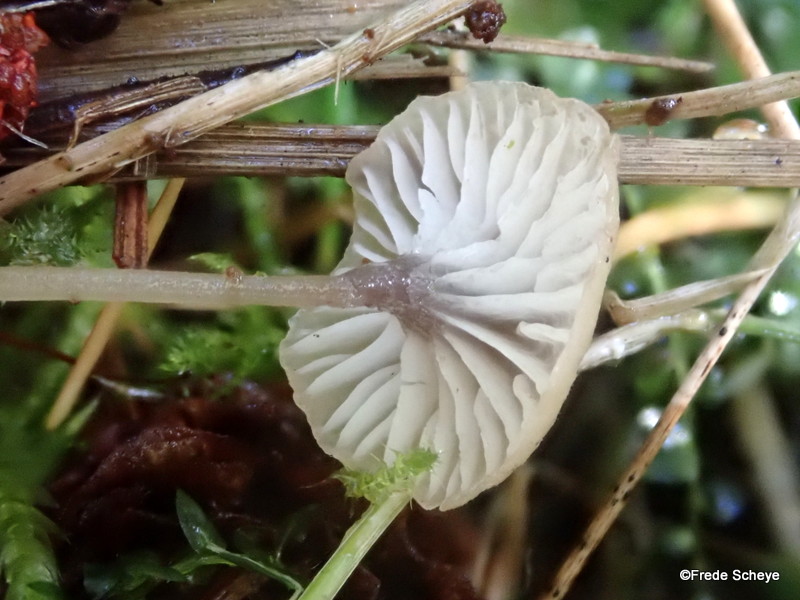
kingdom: Fungi
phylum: Basidiomycota
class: Agaricomycetes
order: Hymenochaetales
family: Rickenellaceae
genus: Rickenella
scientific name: Rickenella swartzii
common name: finstokket mosnavlehat
